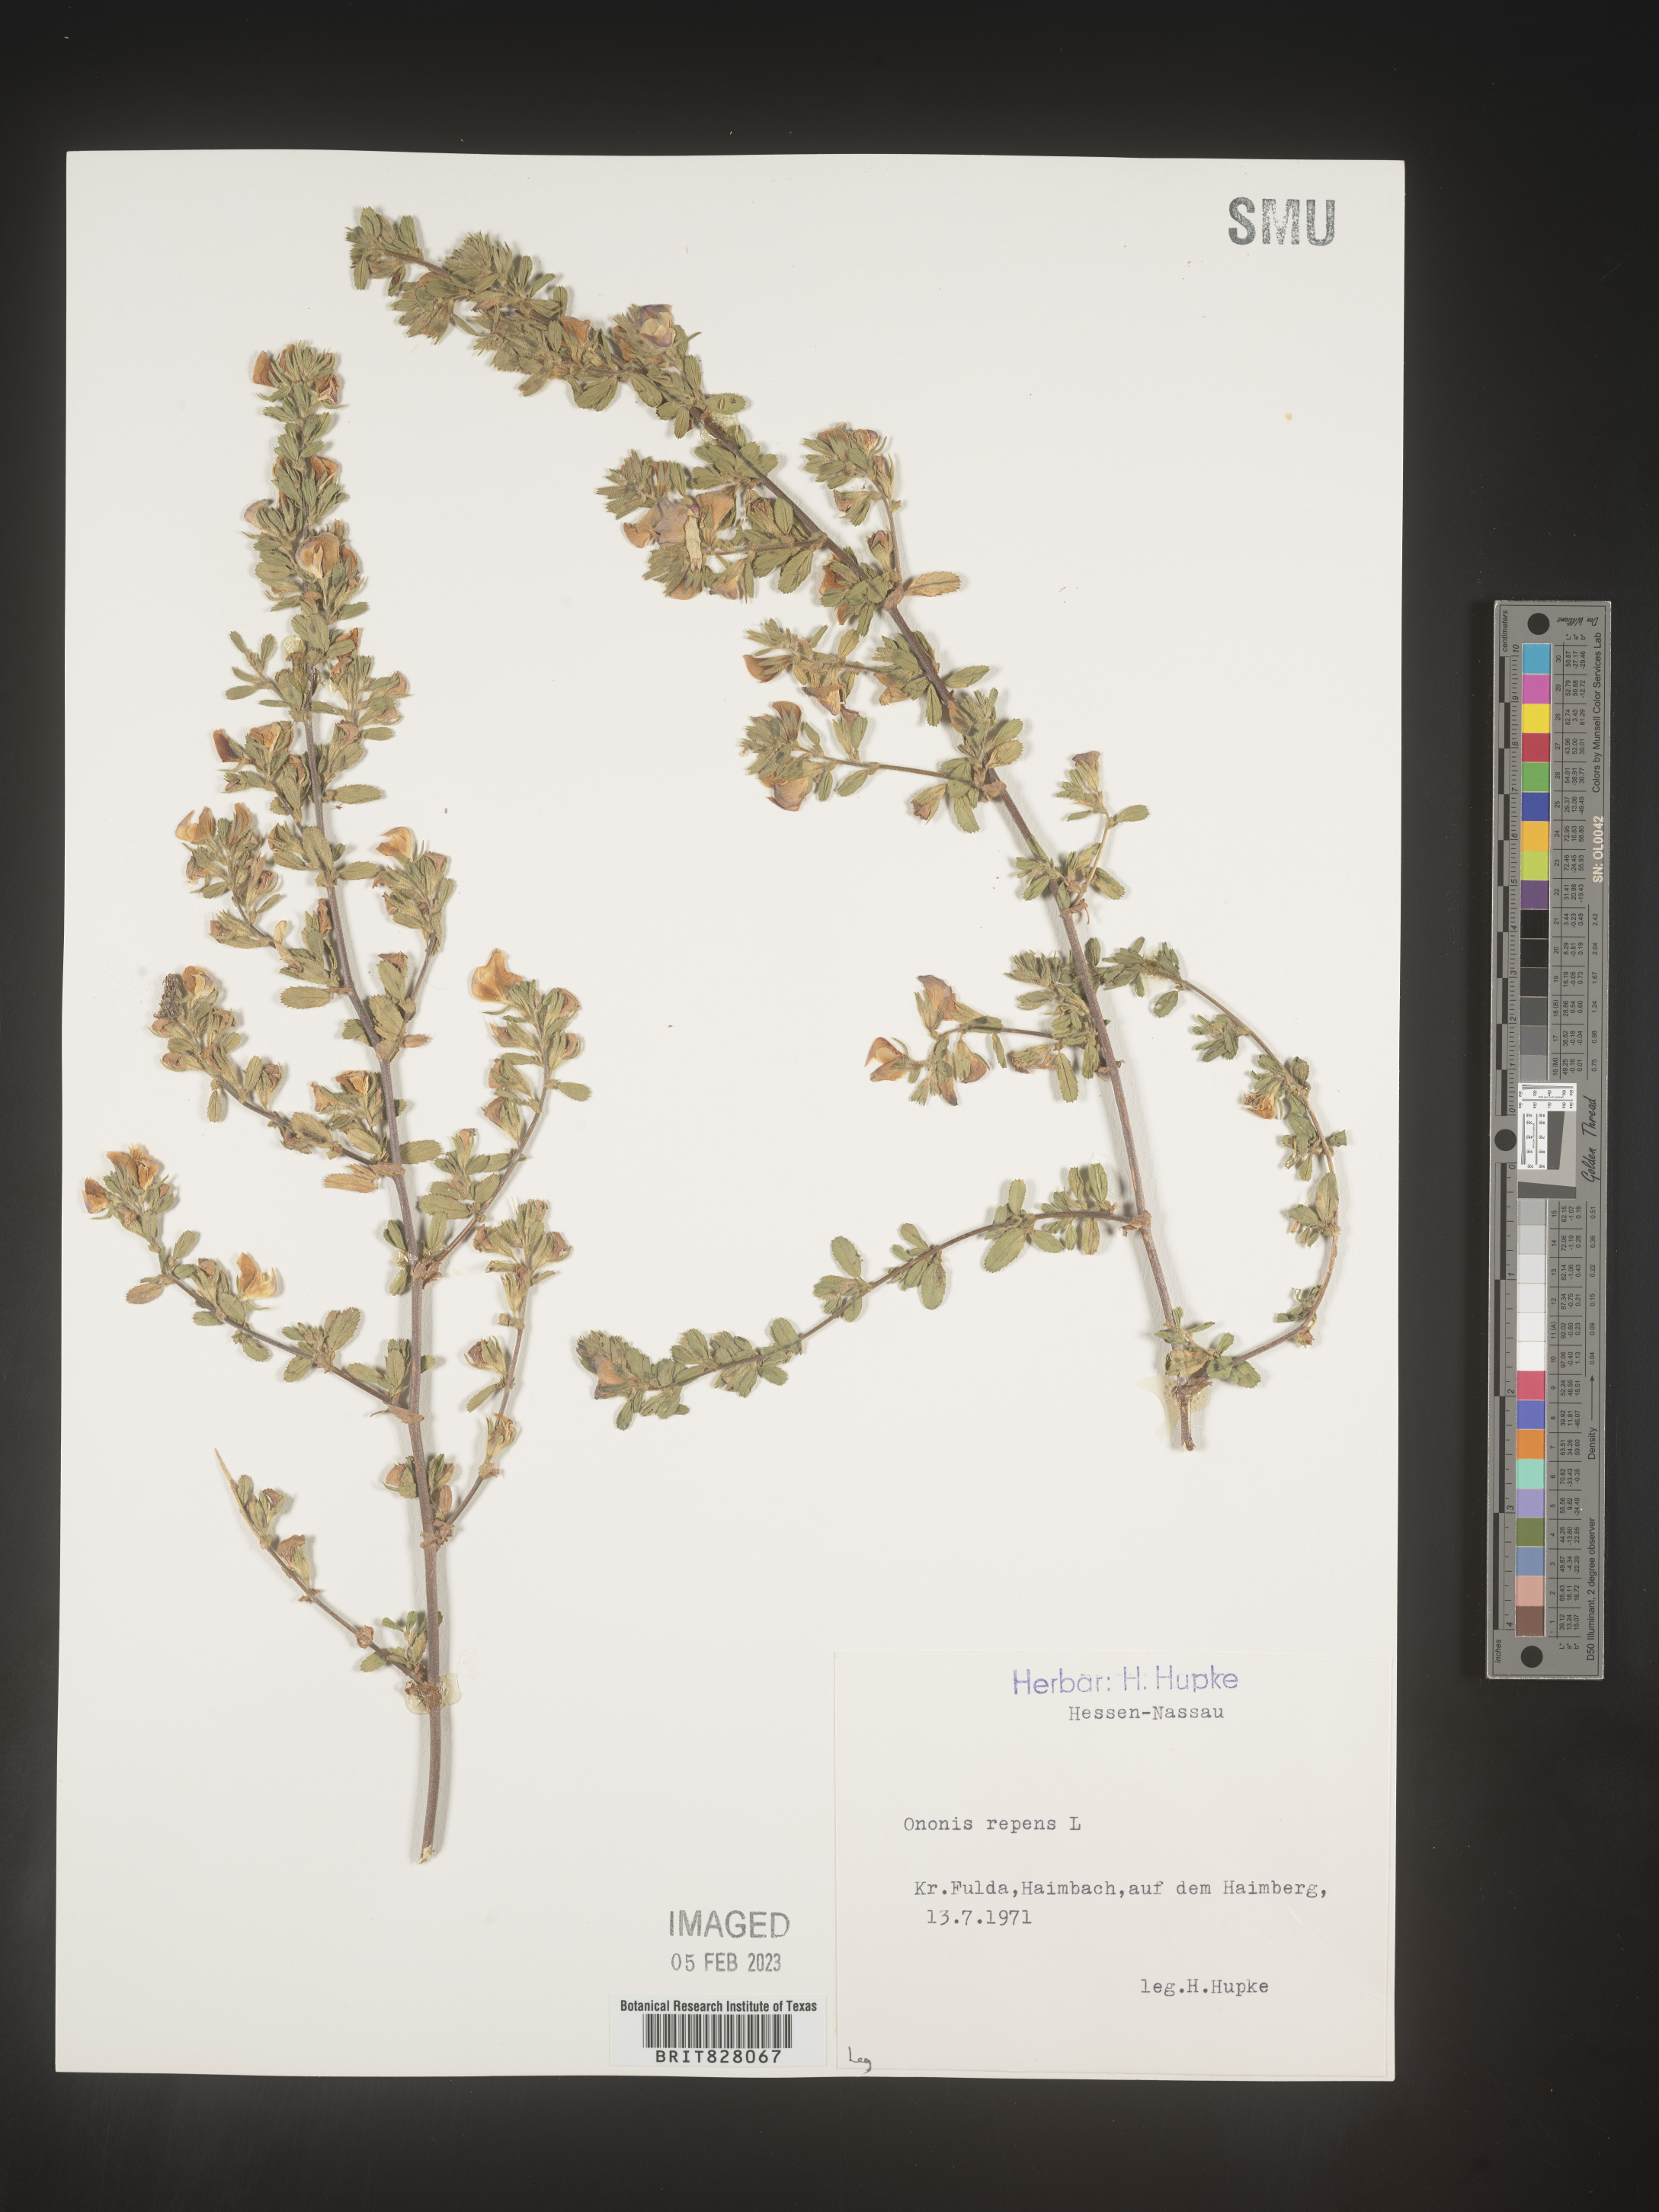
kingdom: Plantae
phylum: Tracheophyta
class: Magnoliopsida
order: Fabales
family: Fabaceae
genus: Ononis
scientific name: Ononis
